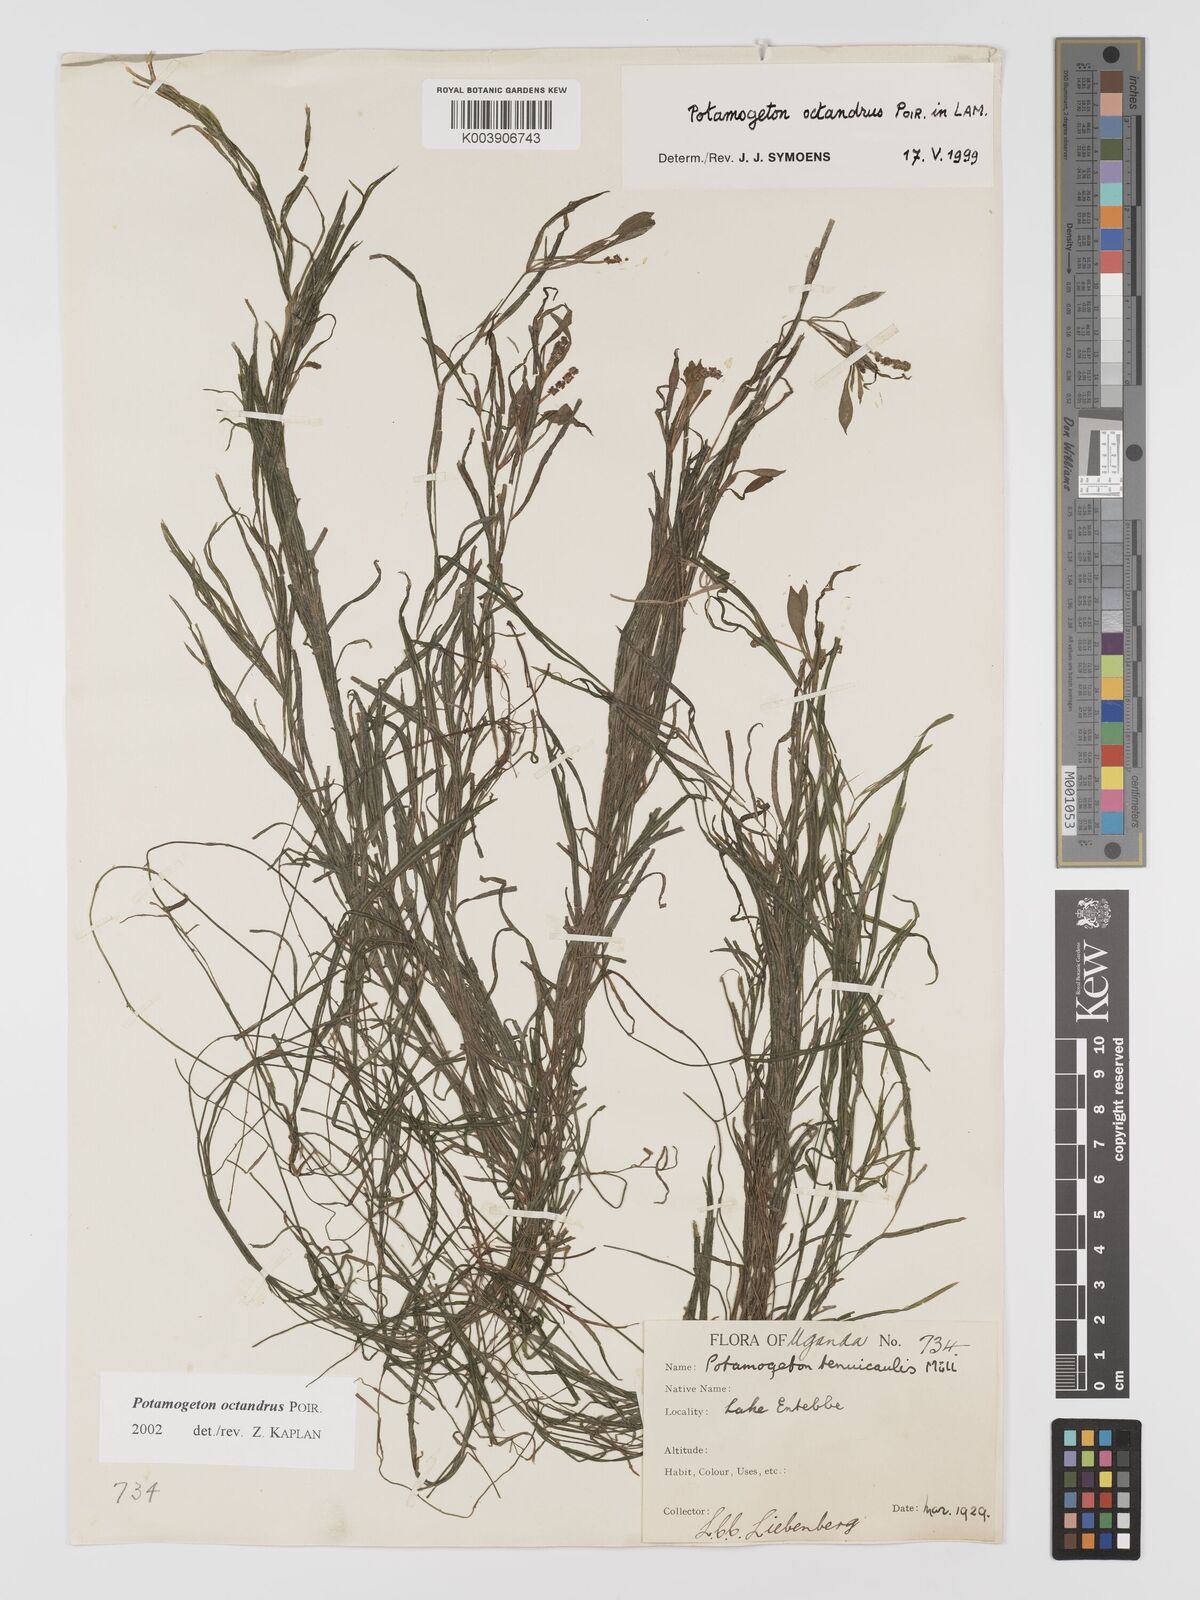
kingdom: Plantae
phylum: Tracheophyta
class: Liliopsida
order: Alismatales
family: Potamogetonaceae
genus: Potamogeton
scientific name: Potamogeton octandrus
